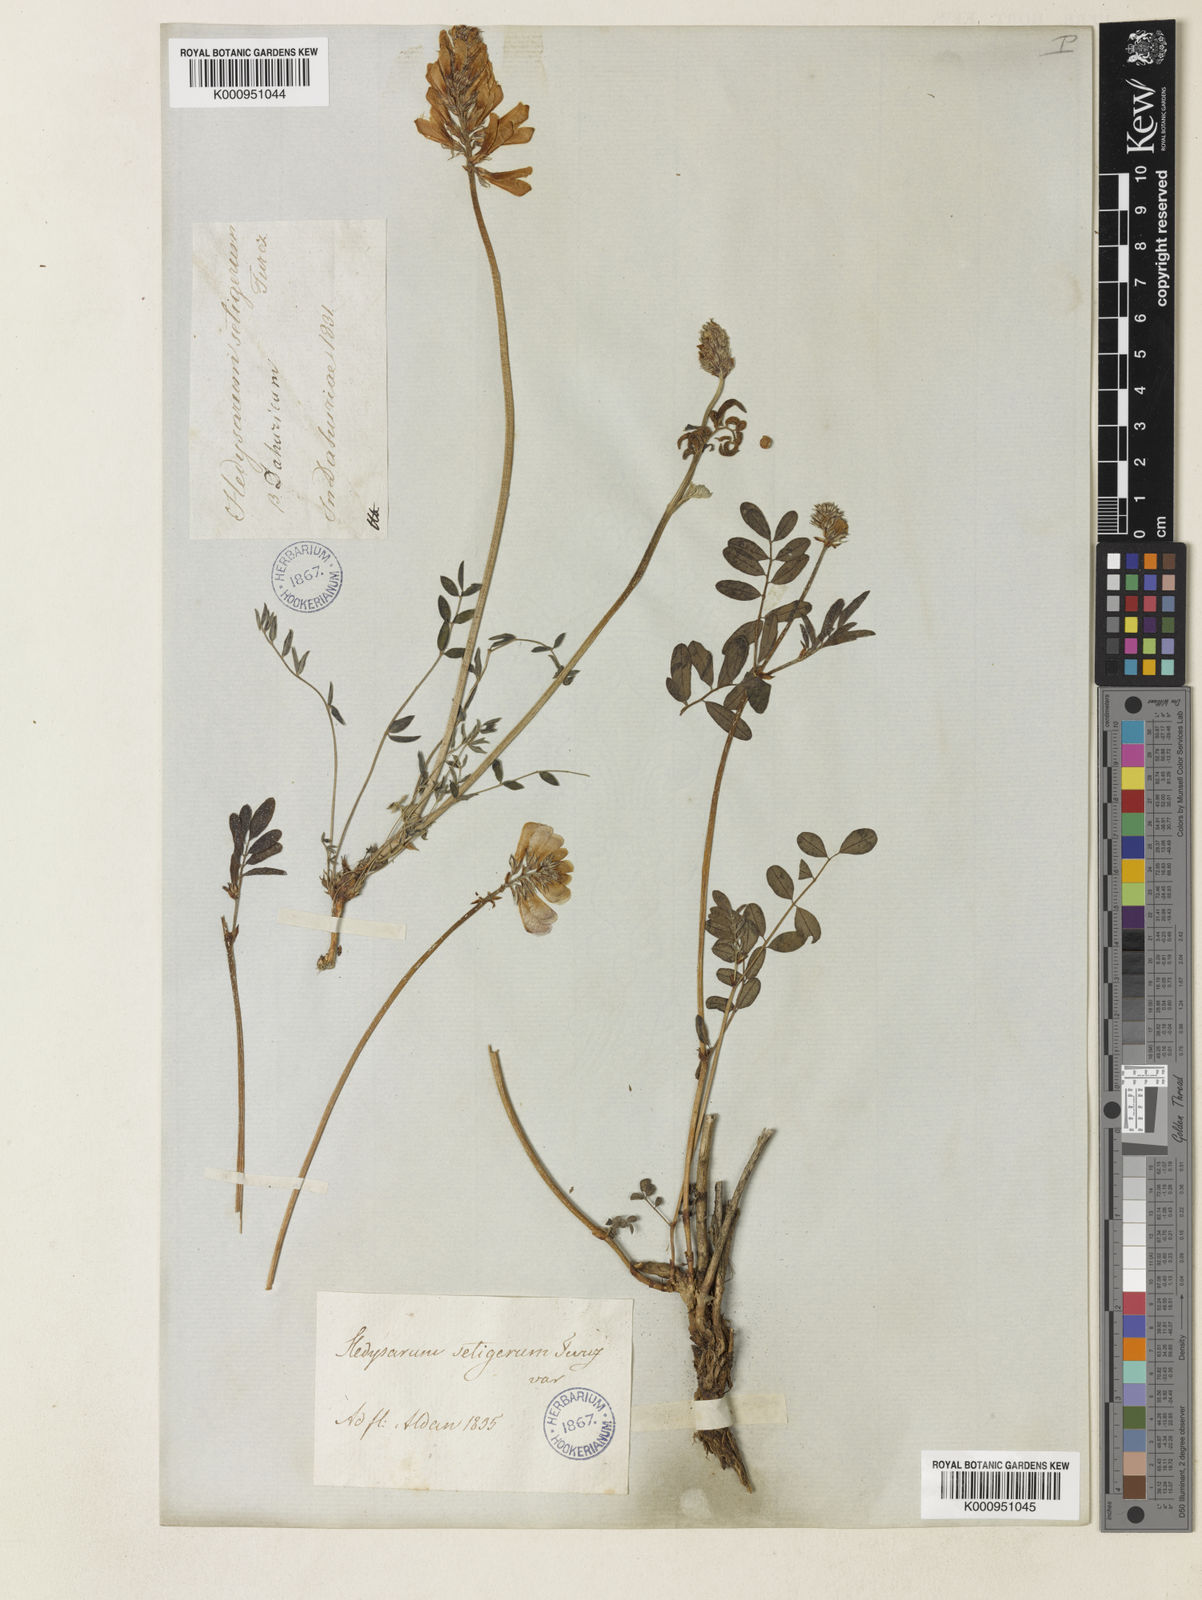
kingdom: Plantae
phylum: Tracheophyta
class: Magnoliopsida
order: Fabales
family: Fabaceae
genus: Hedysarum
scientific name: Hedysarum setigerum
